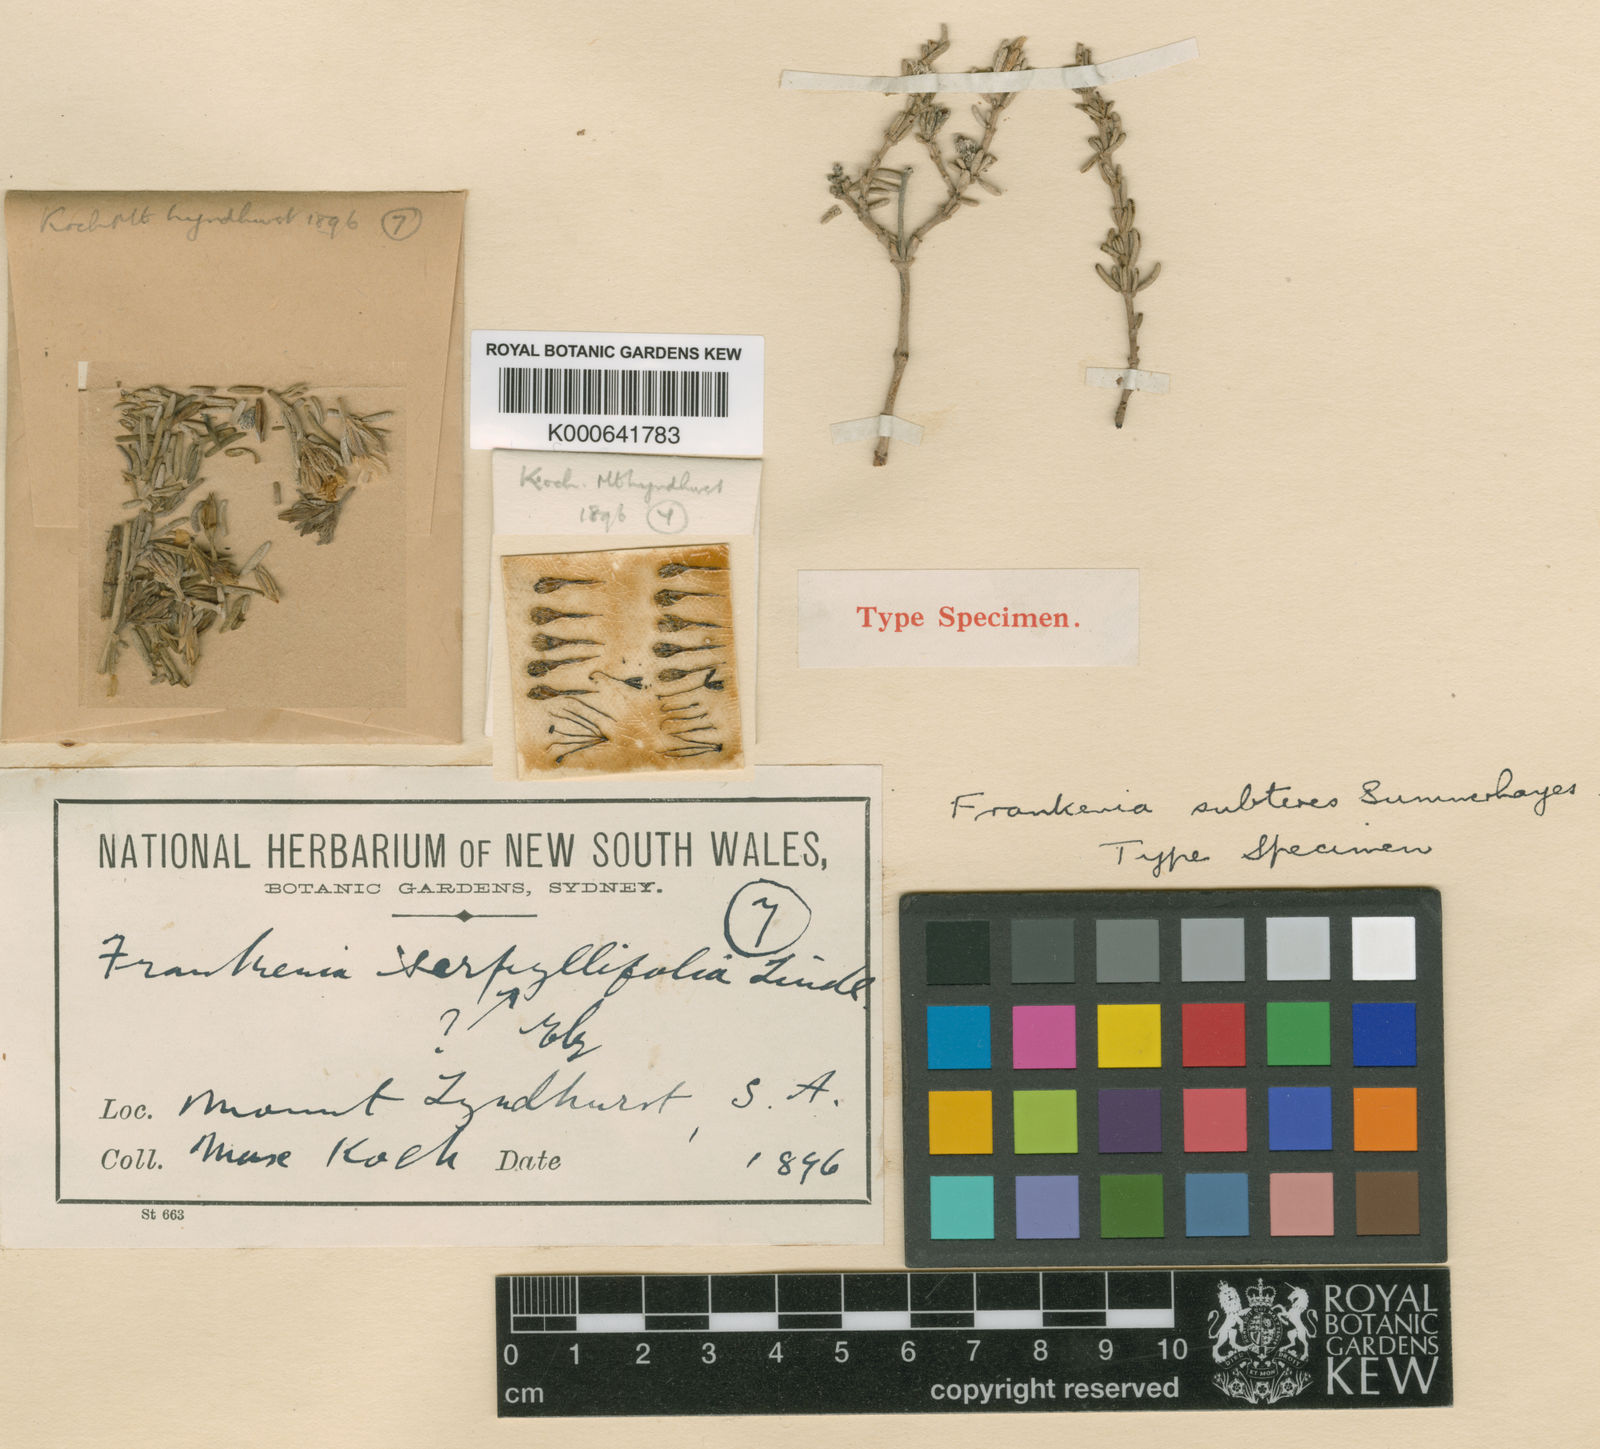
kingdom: Plantae
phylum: Tracheophyta
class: Magnoliopsida
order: Caryophyllales
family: Frankeniaceae
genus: Frankenia
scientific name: Frankenia subteres
